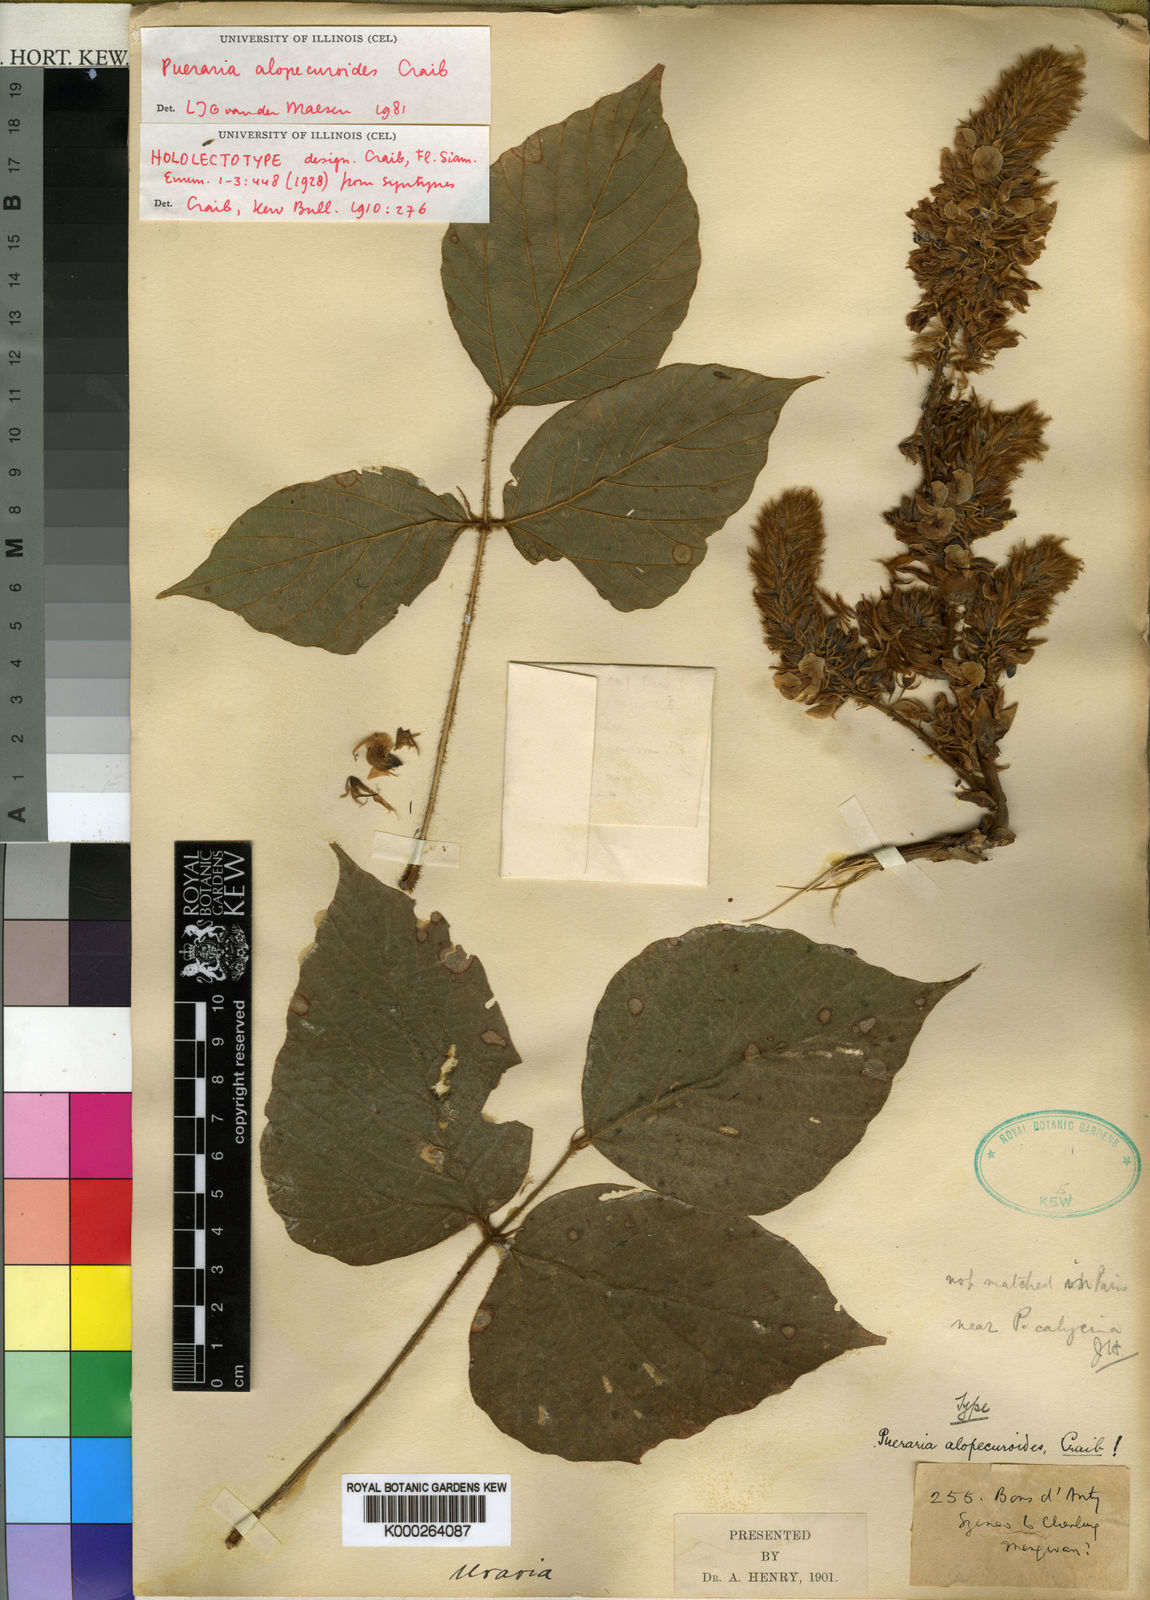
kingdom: Plantae
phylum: Tracheophyta
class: Magnoliopsida
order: Fabales
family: Fabaceae
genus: Pueraria
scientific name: Pueraria alopecuroides
